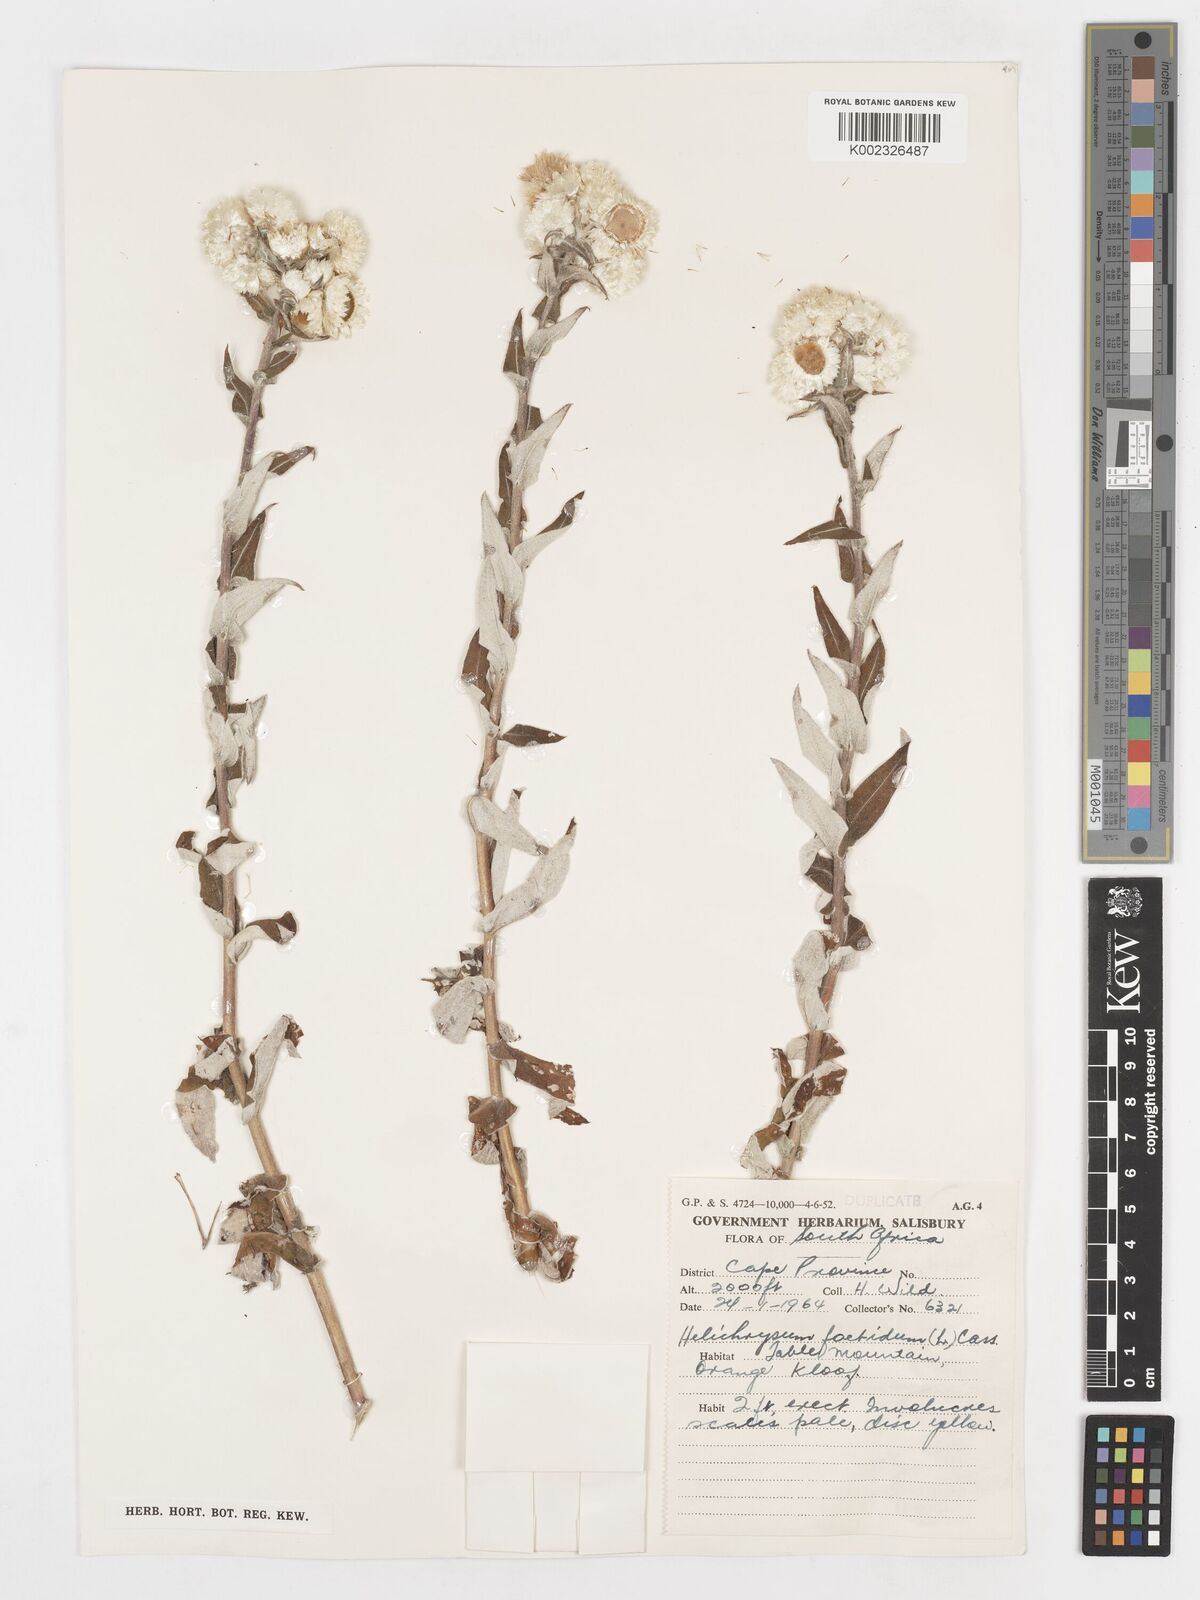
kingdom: Plantae
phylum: Tracheophyta
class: Magnoliopsida
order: Asterales
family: Asteraceae
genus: Helichrysum
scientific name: Helichrysum foetidum
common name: Stinking everlasting
